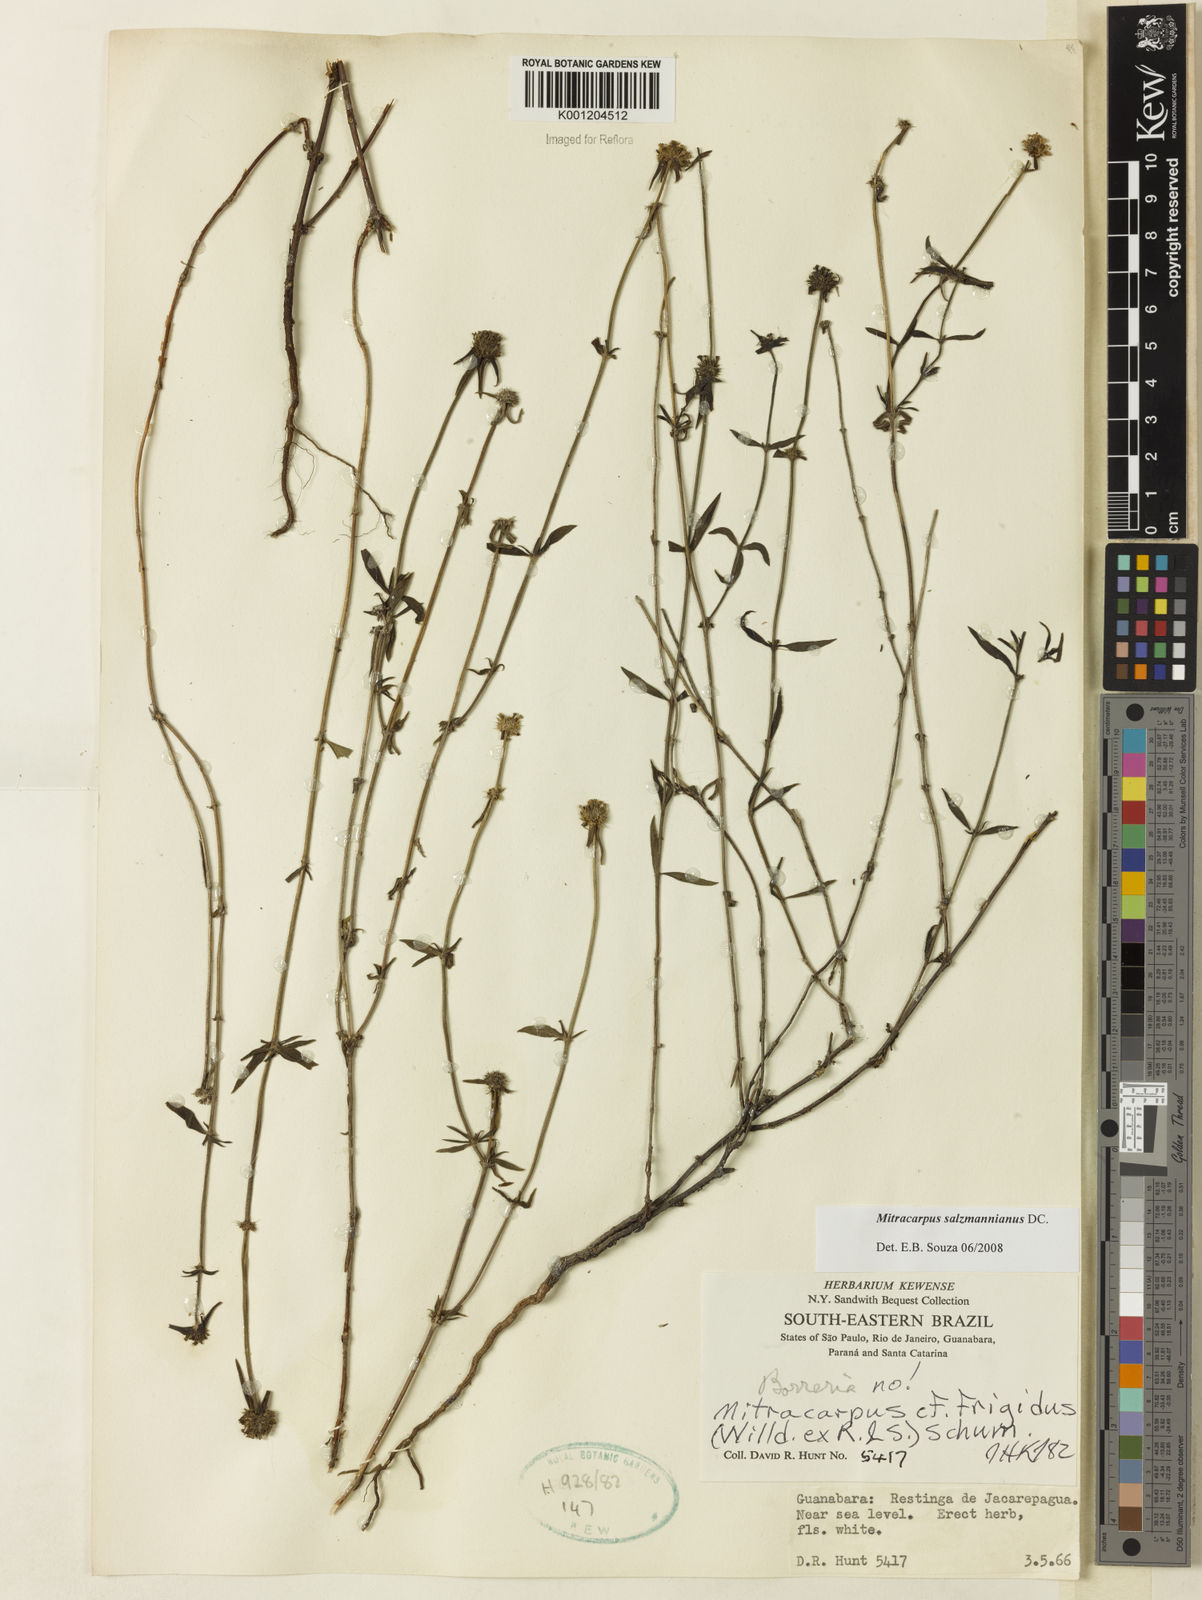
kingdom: Plantae
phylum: Tracheophyta
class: Magnoliopsida
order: Gentianales
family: Rubiaceae
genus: Mitracarpus
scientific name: Mitracarpus salzmannianus
